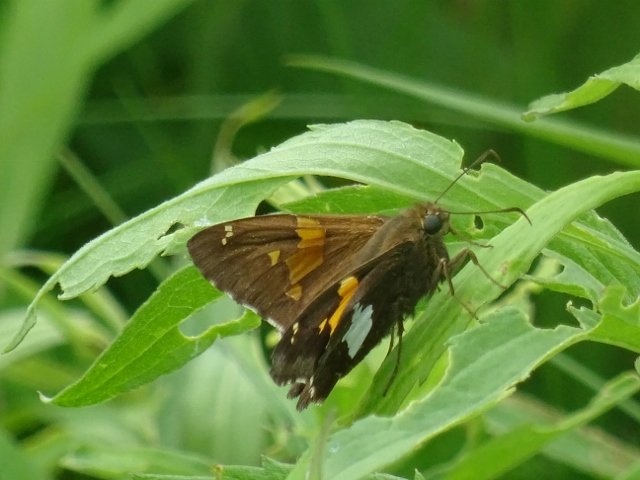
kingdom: Animalia
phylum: Arthropoda
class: Insecta
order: Lepidoptera
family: Hesperiidae
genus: Epargyreus
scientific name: Epargyreus clarus
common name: Silver-spotted Skipper
